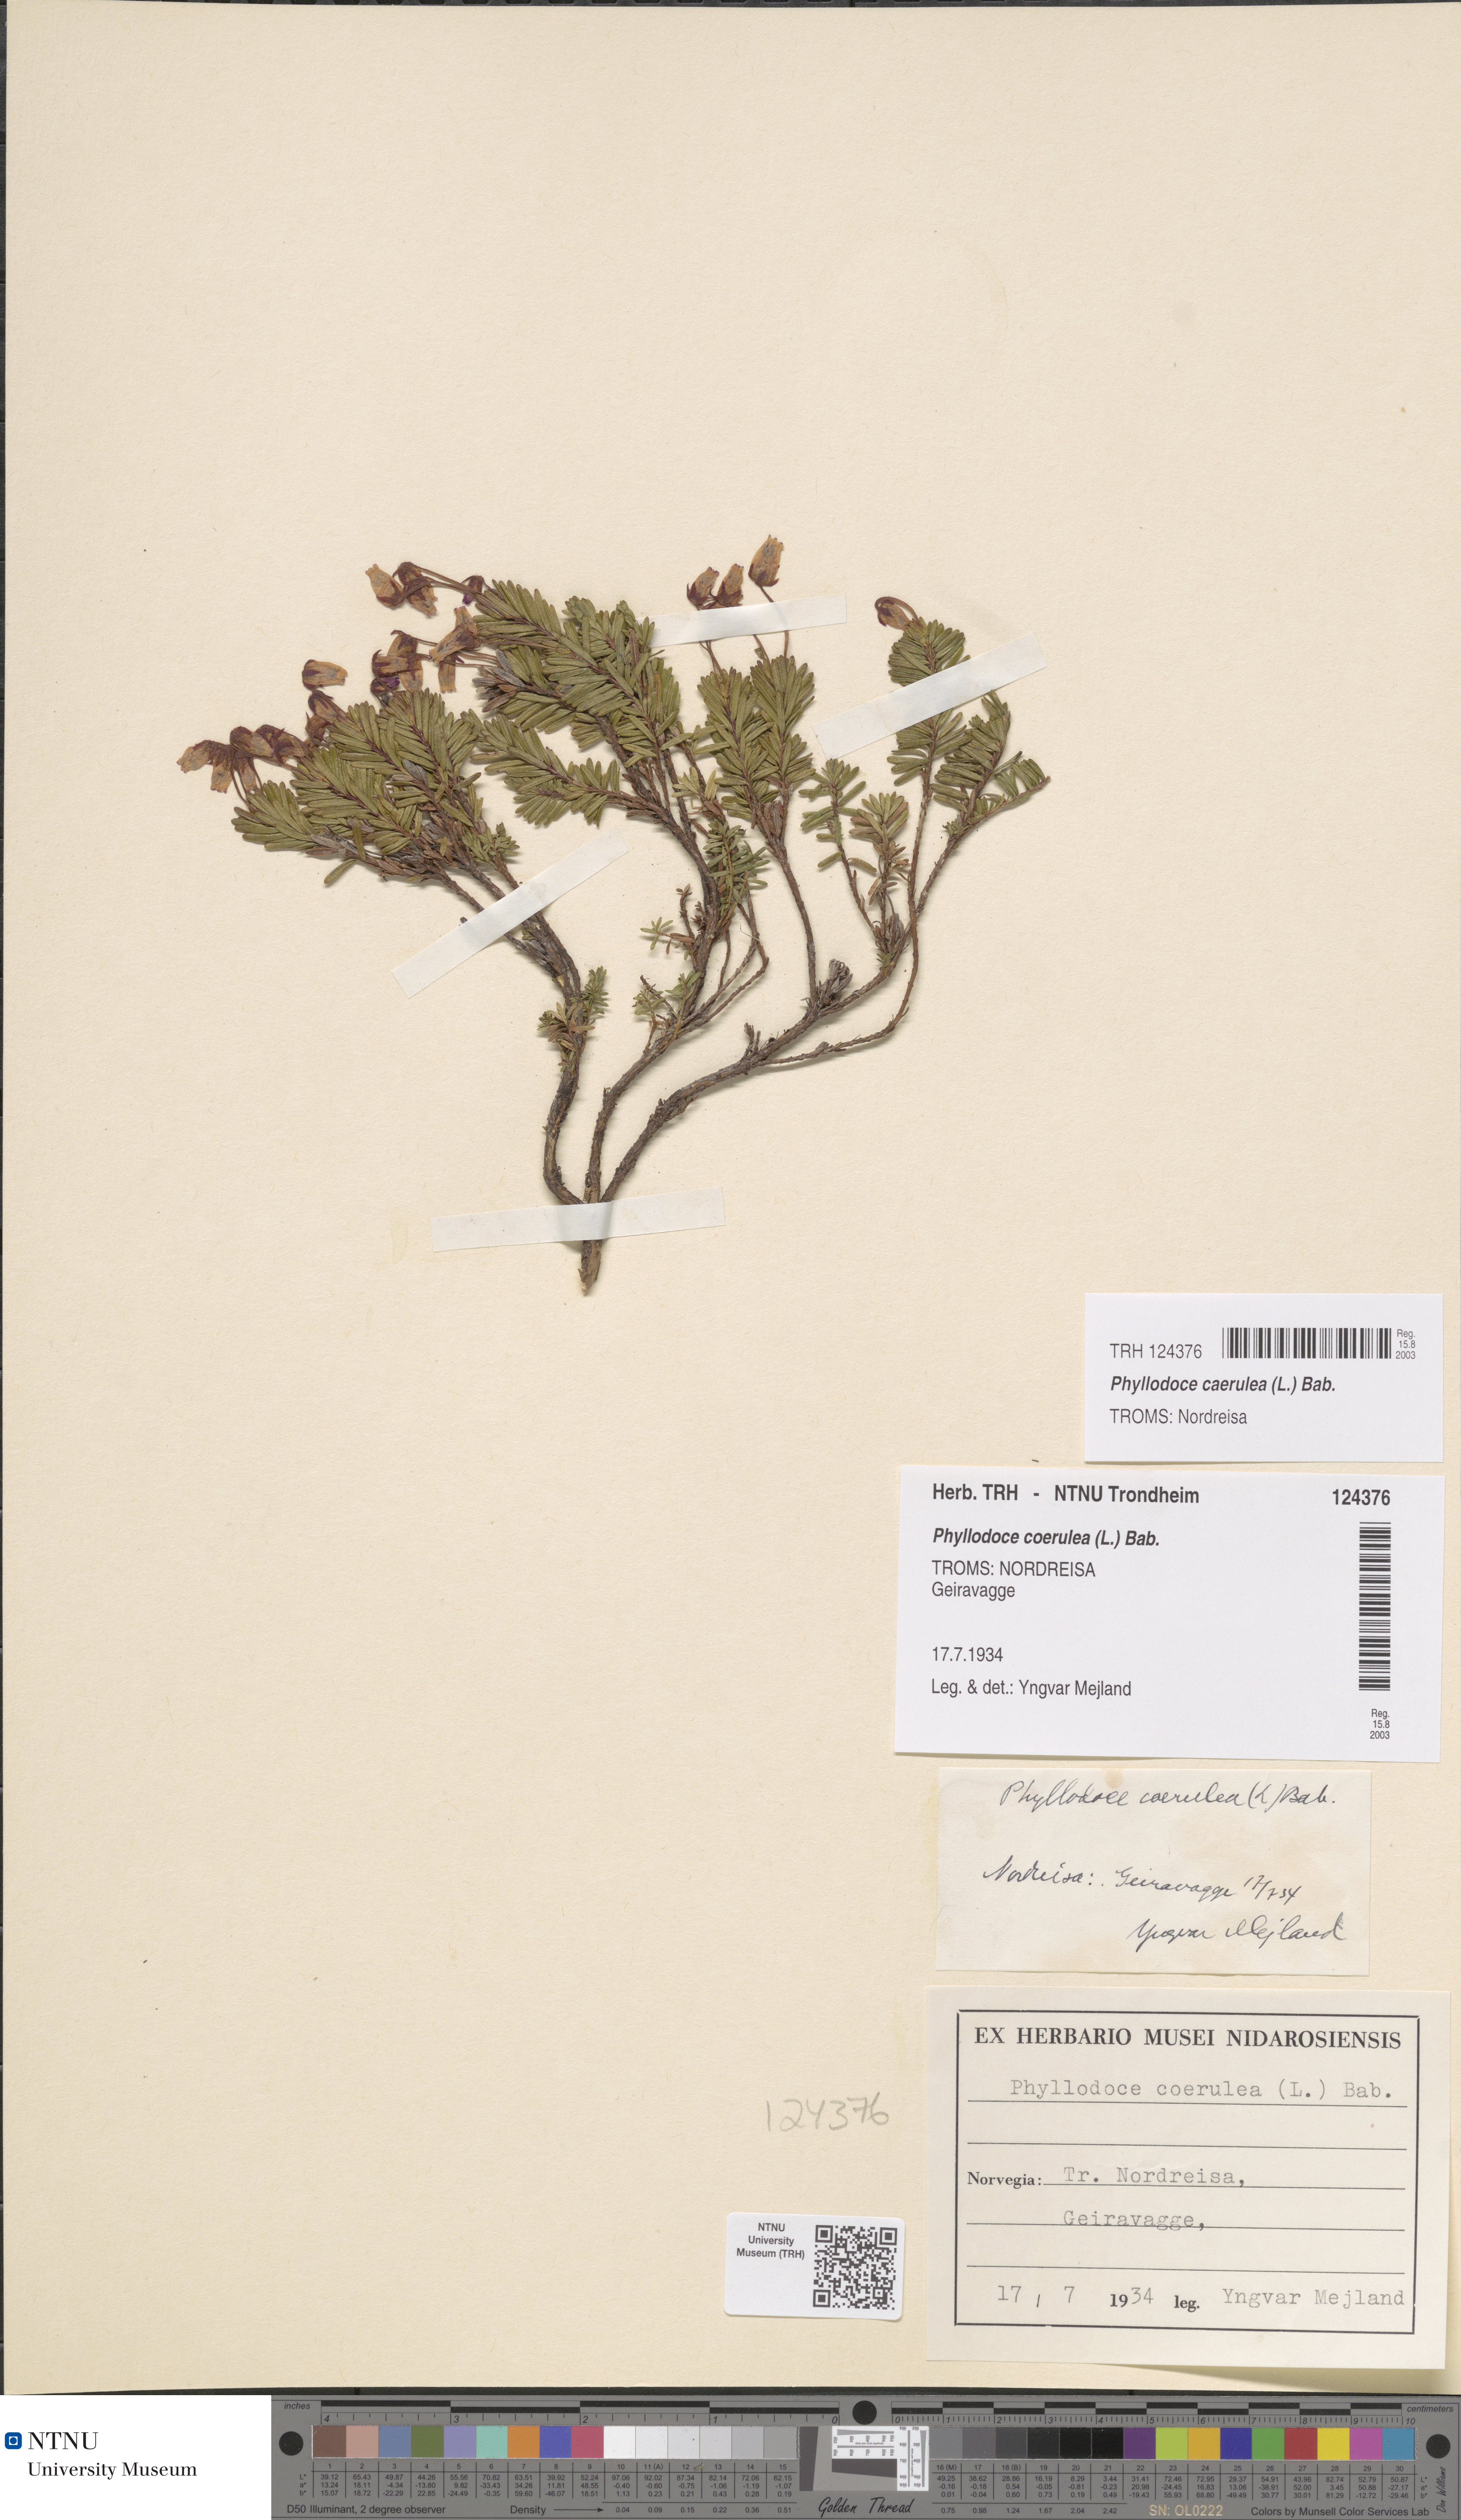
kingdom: Plantae
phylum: Tracheophyta
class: Magnoliopsida
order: Ericales
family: Ericaceae
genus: Phyllodoce
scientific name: Phyllodoce caerulea
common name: Blue heath
